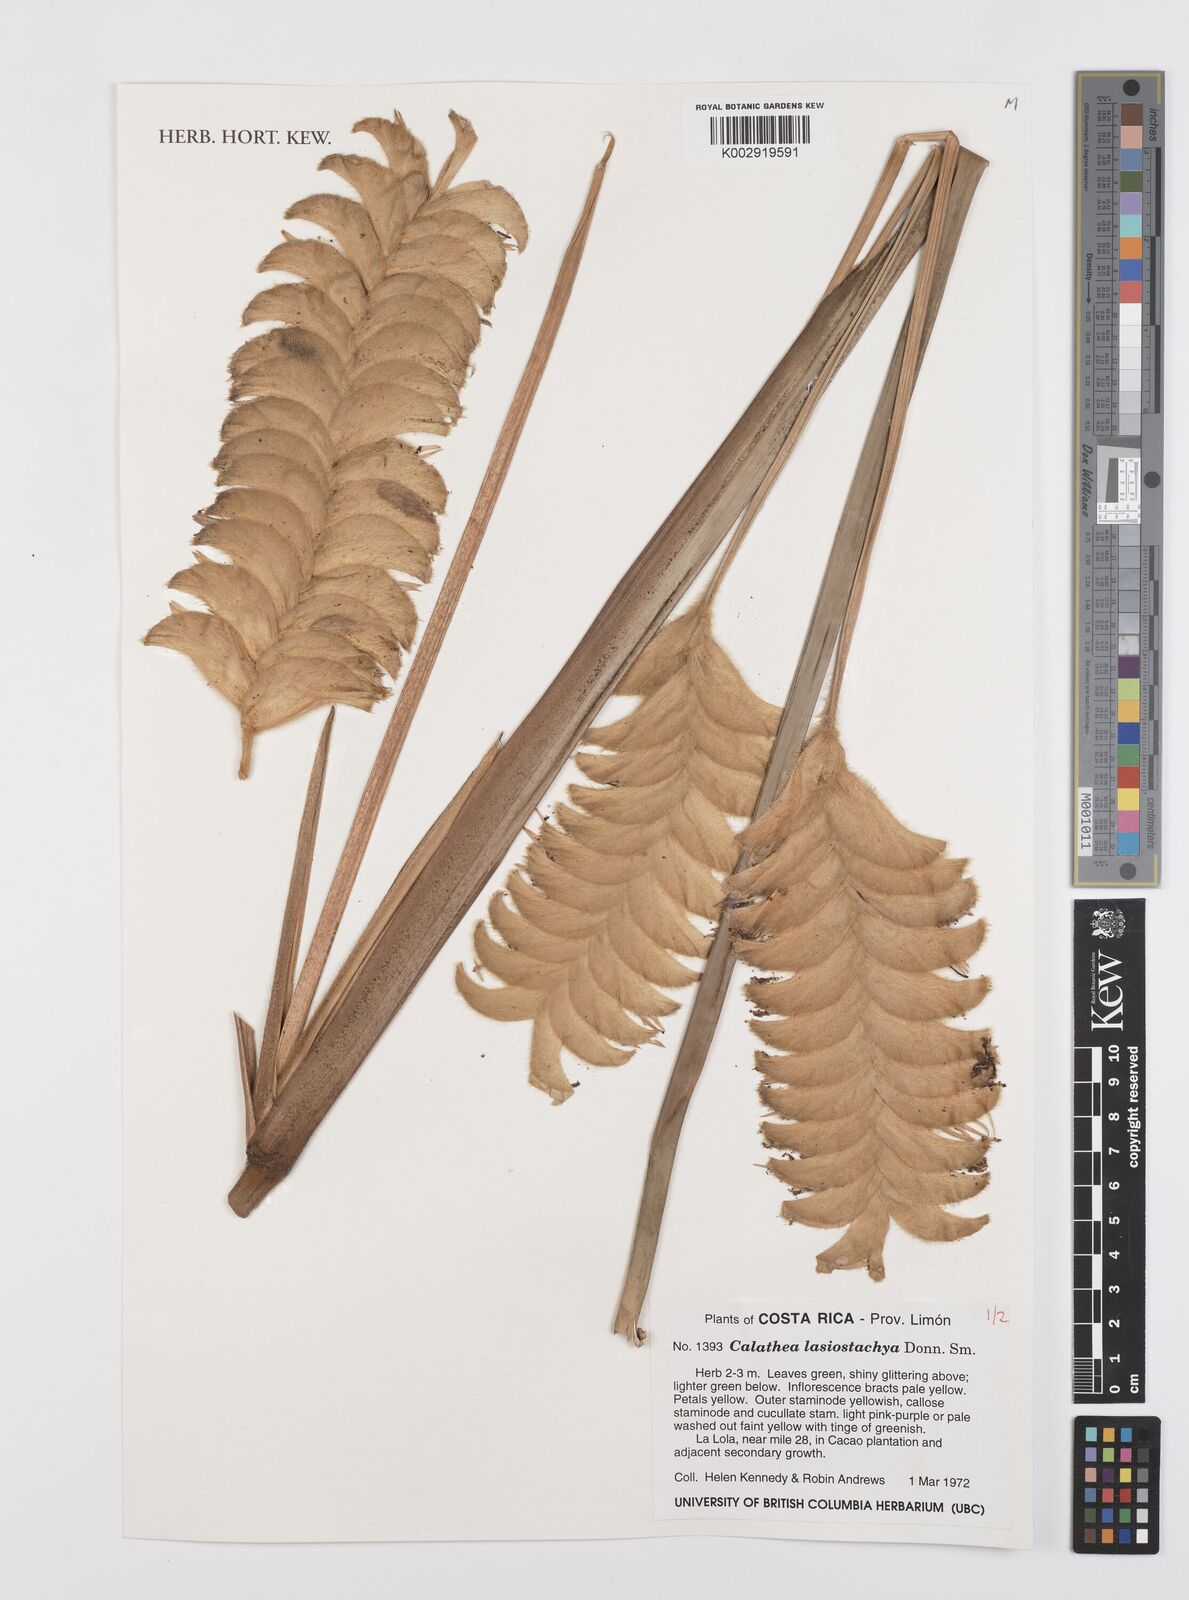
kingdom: Plantae
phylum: Tracheophyta
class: Liliopsida
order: Zingiberales
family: Marantaceae
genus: Calathea
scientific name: Calathea lasiostachya
